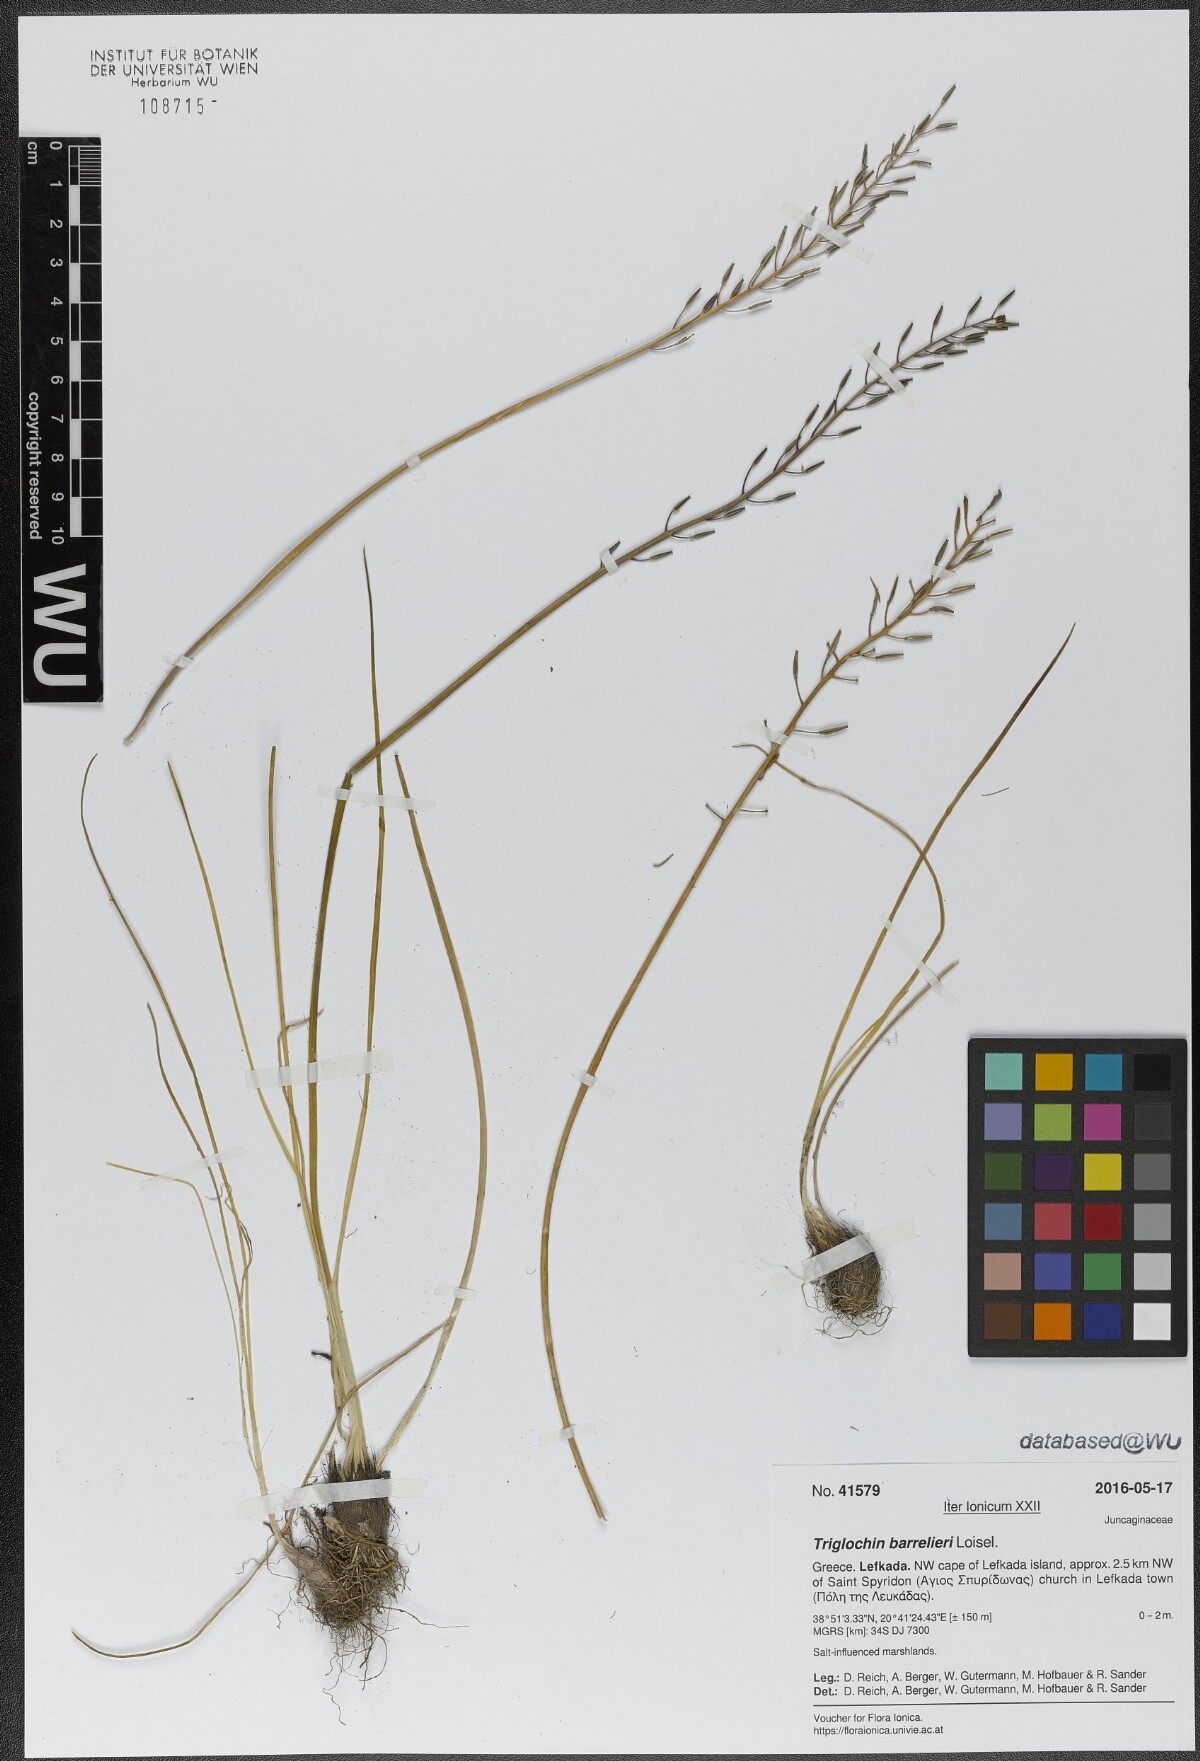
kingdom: Plantae
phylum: Tracheophyta
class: Liliopsida
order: Alismatales
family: Juncaginaceae
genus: Triglochin
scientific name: Triglochin barrelieri
